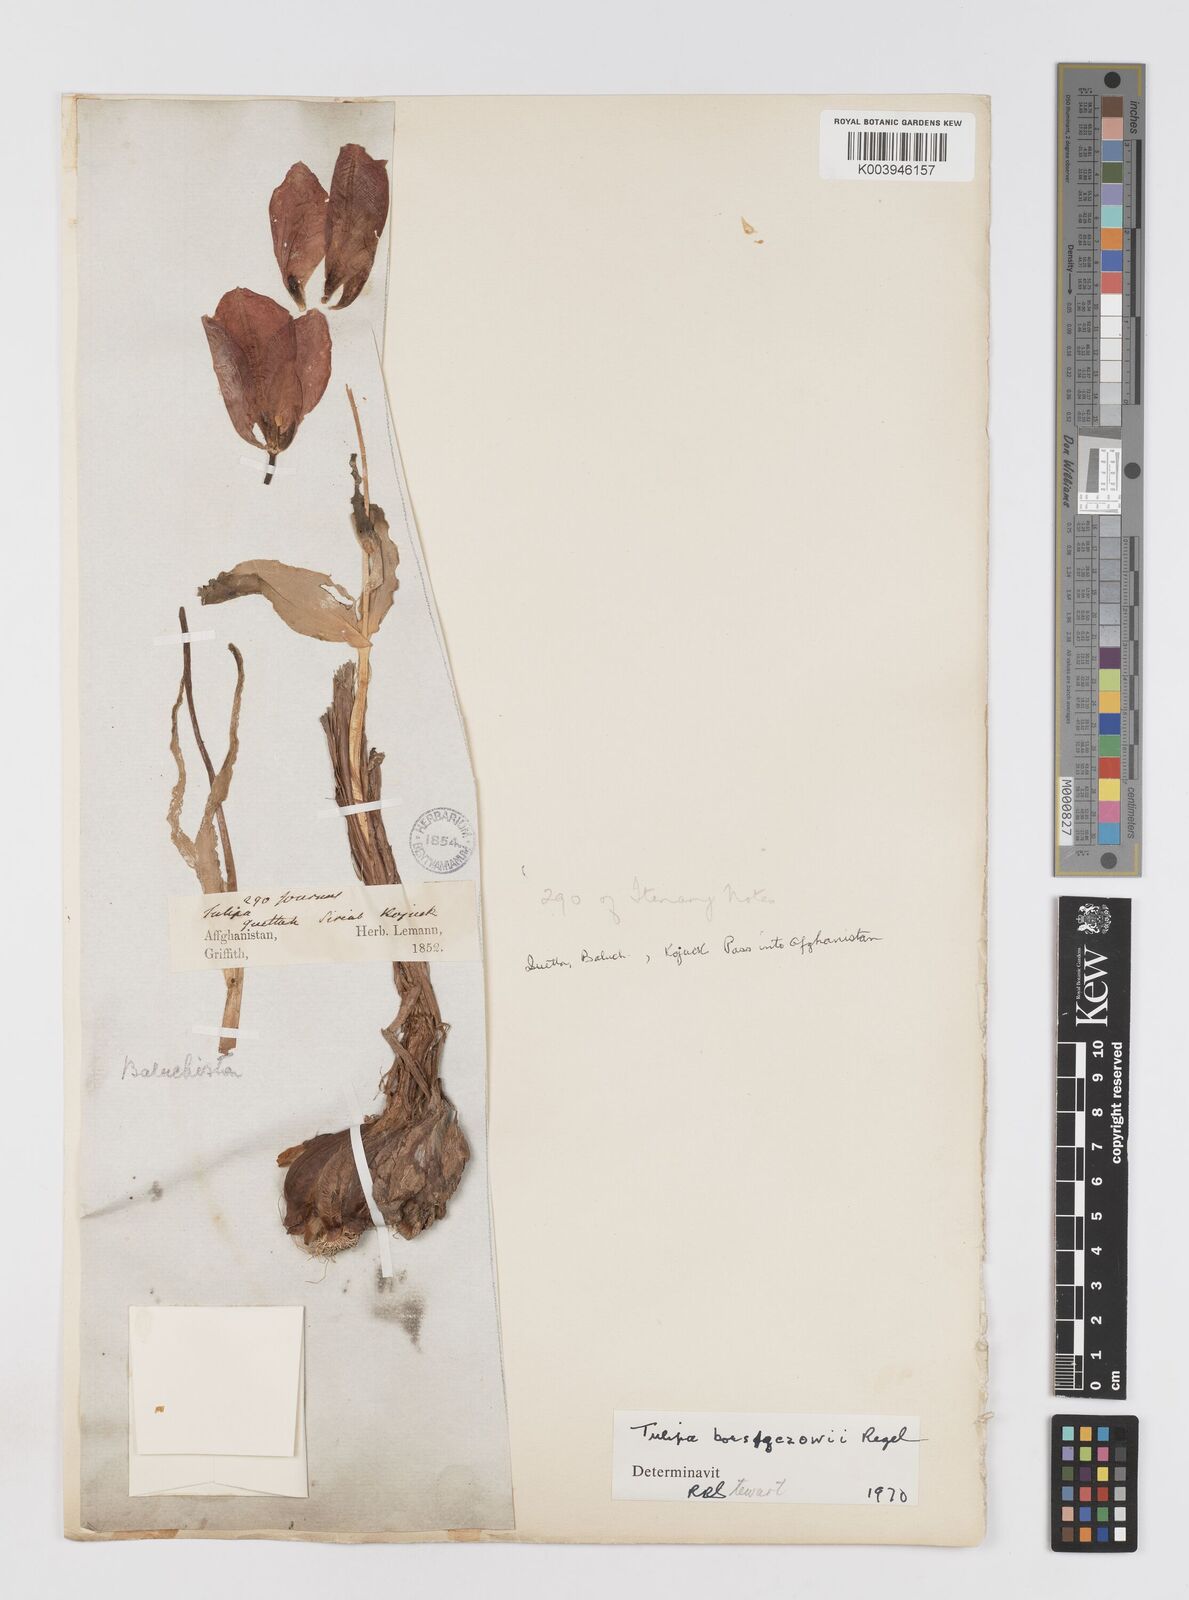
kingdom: Plantae
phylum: Tracheophyta
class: Liliopsida
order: Liliales
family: Liliaceae
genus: Tulipa
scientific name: Tulipa borszczowii
